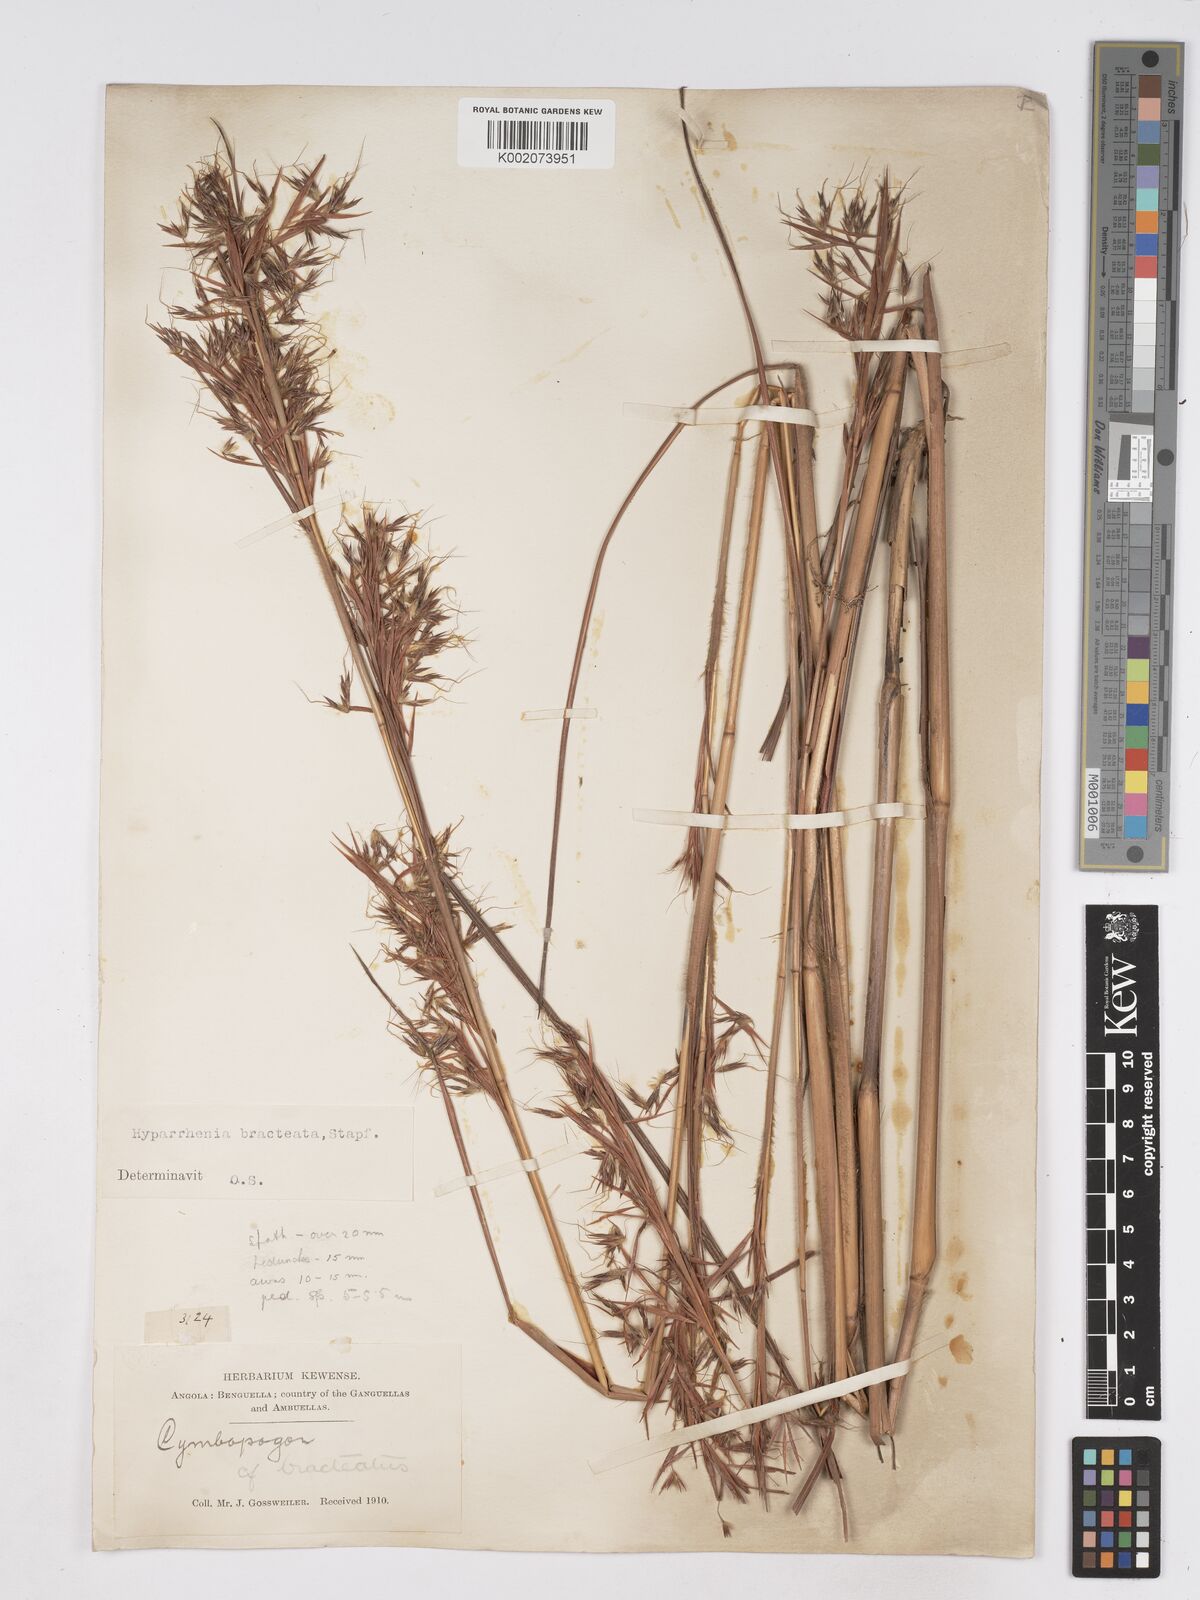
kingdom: Plantae
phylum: Tracheophyta
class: Liliopsida
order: Poales
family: Poaceae
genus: Hyparrhenia
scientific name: Hyparrhenia bracteata
